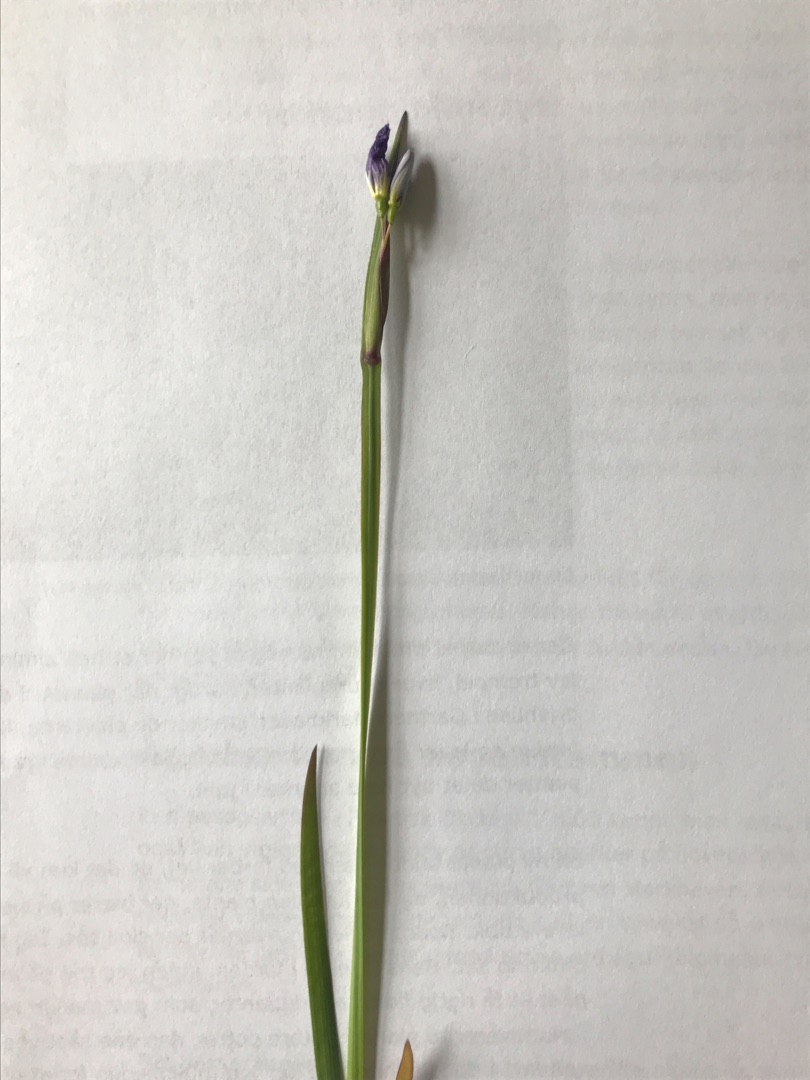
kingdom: Plantae
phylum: Tracheophyta
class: Liliopsida
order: Asparagales
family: Iridaceae
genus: Sisyrinchium
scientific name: Sisyrinchium
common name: Blåøjeslægten
